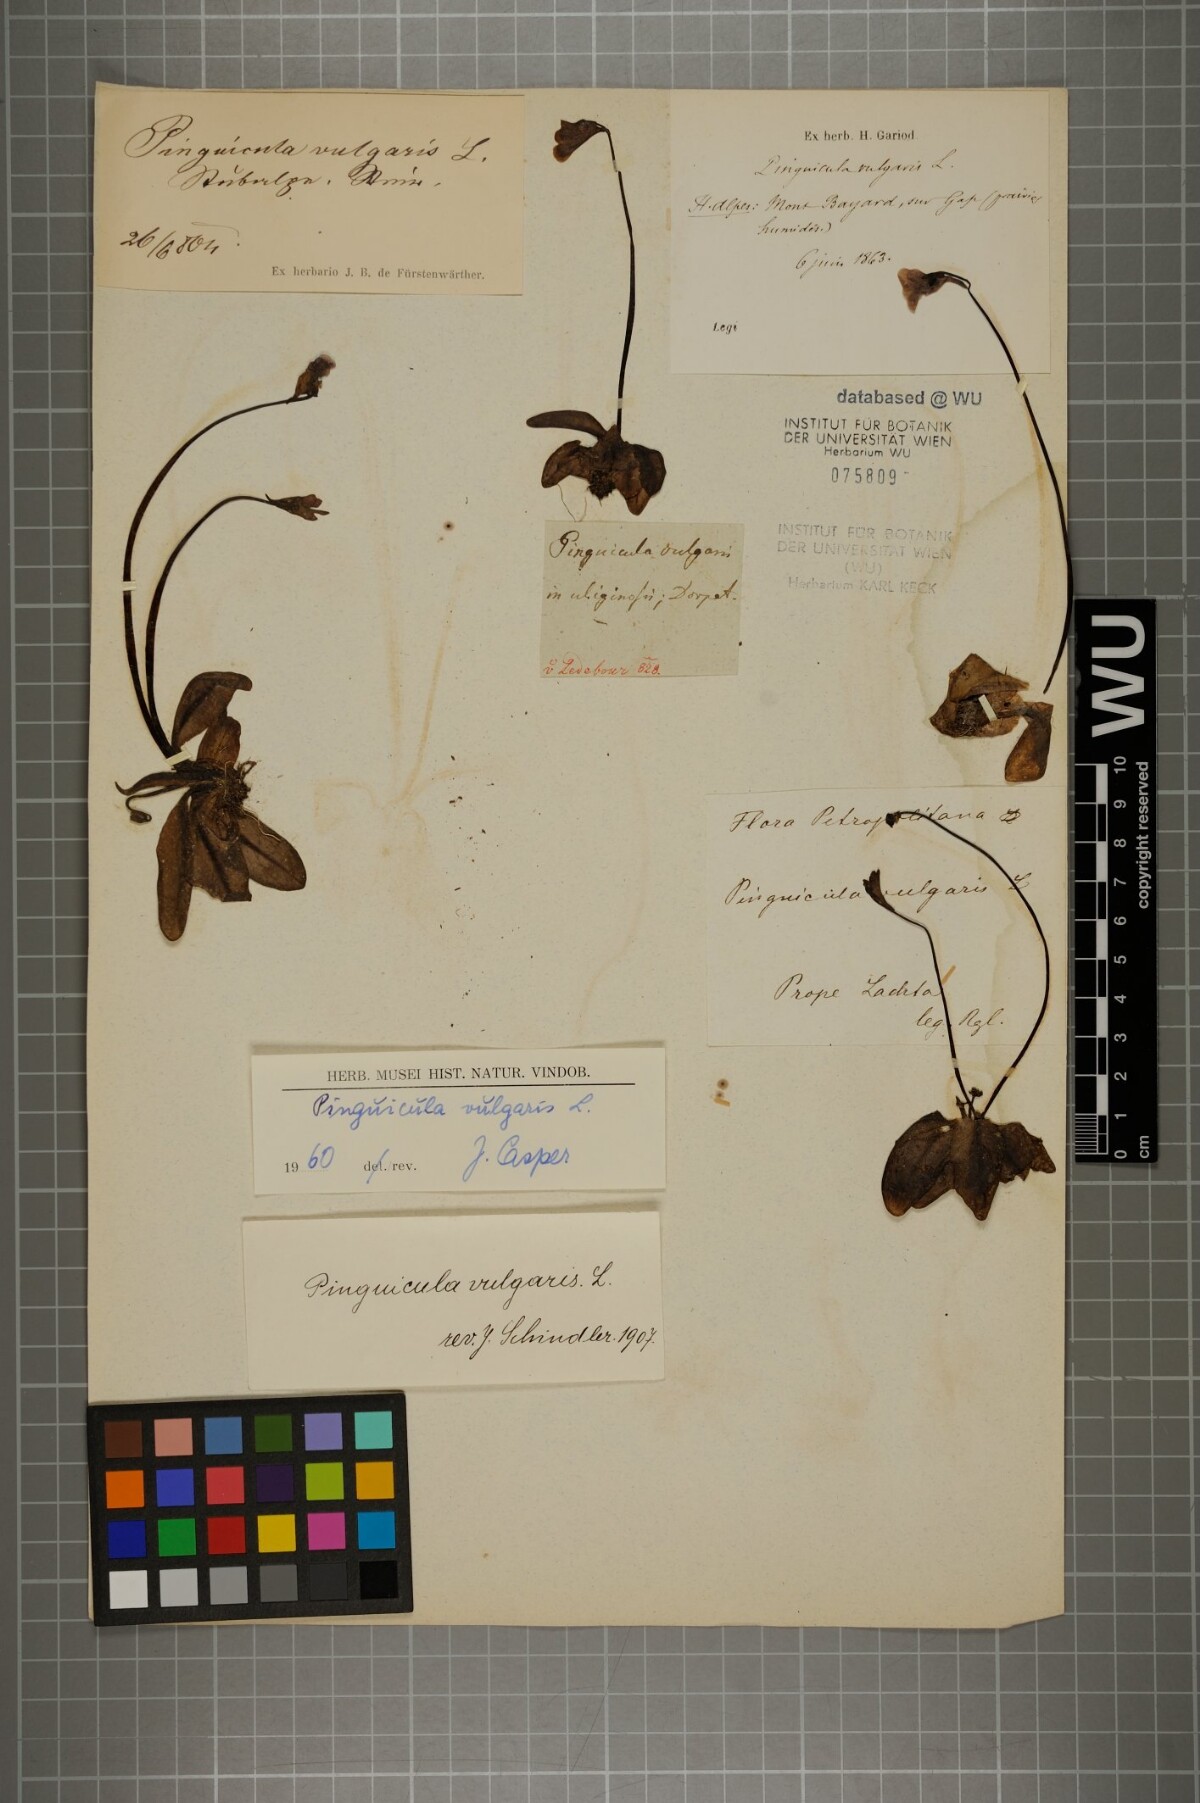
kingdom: Plantae
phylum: Tracheophyta
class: Magnoliopsida
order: Lamiales
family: Lentibulariaceae
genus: Pinguicula
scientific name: Pinguicula vulgaris
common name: Common butterwort
